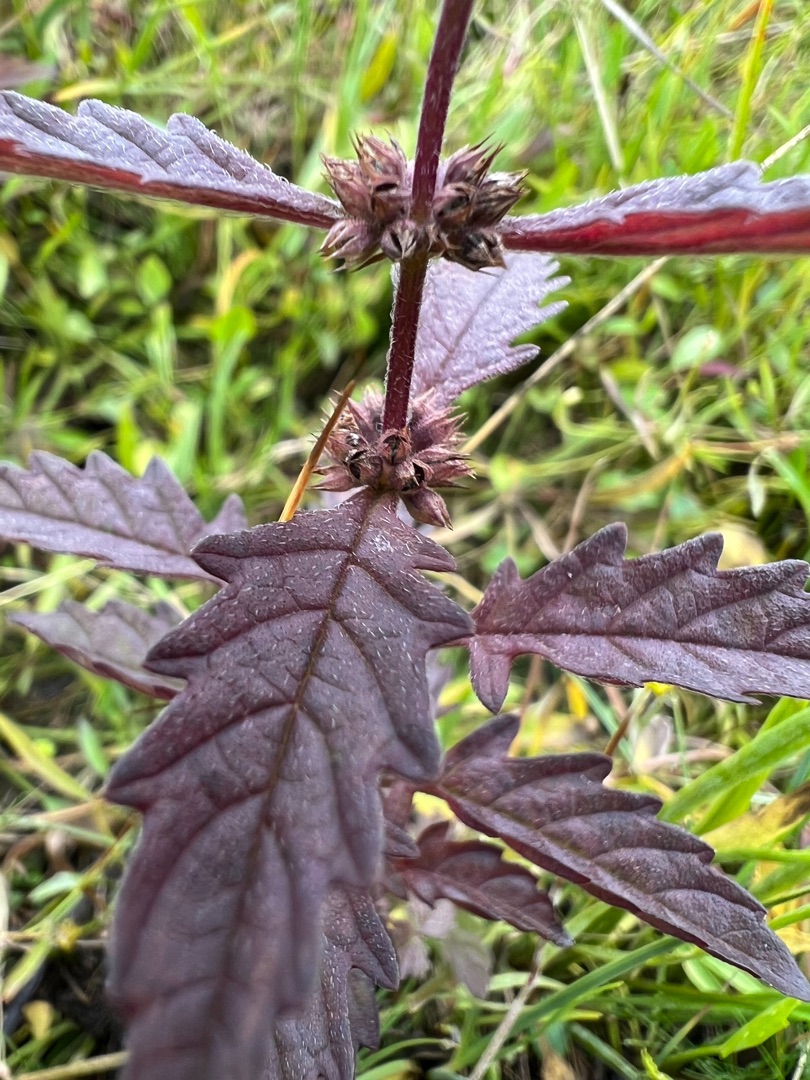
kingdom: Plantae
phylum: Tracheophyta
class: Magnoliopsida
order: Lamiales
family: Lamiaceae
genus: Lycopus
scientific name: Lycopus europaeus
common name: Sværtevæld
